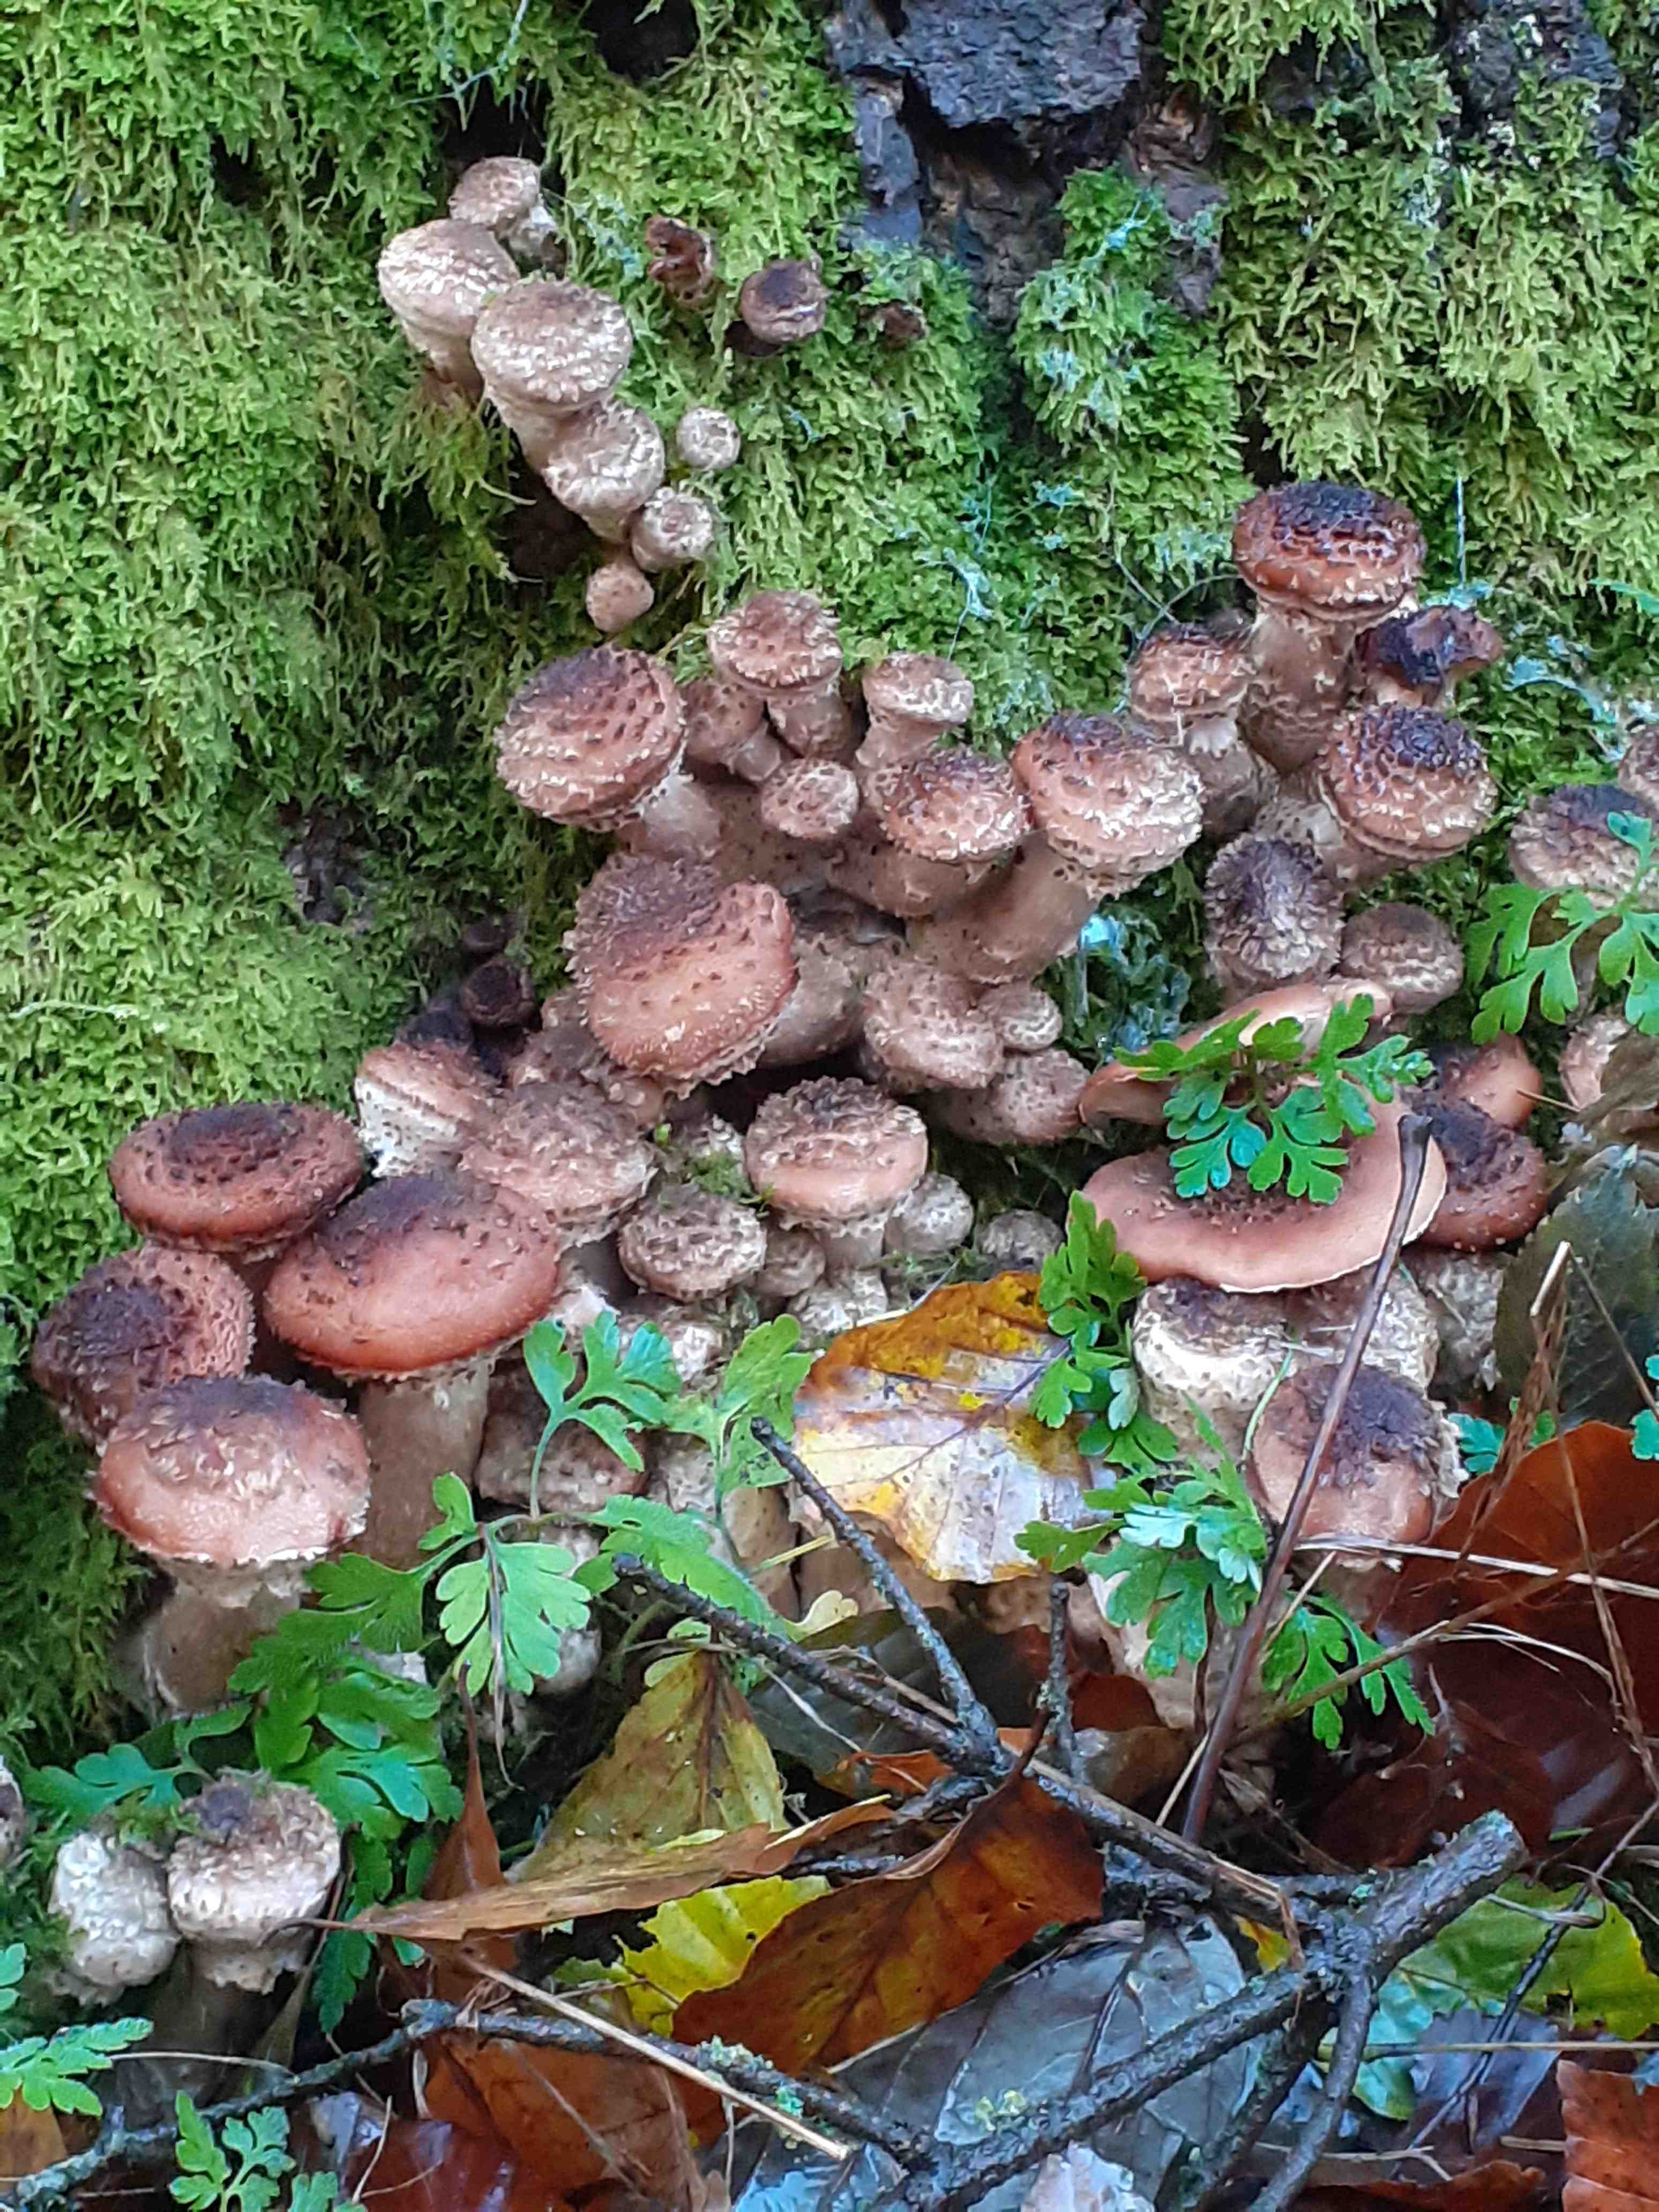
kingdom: Fungi
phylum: Basidiomycota
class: Agaricomycetes
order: Agaricales
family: Physalacriaceae
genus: Armillaria
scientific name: Armillaria ostoyae
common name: mørk honningsvamp
